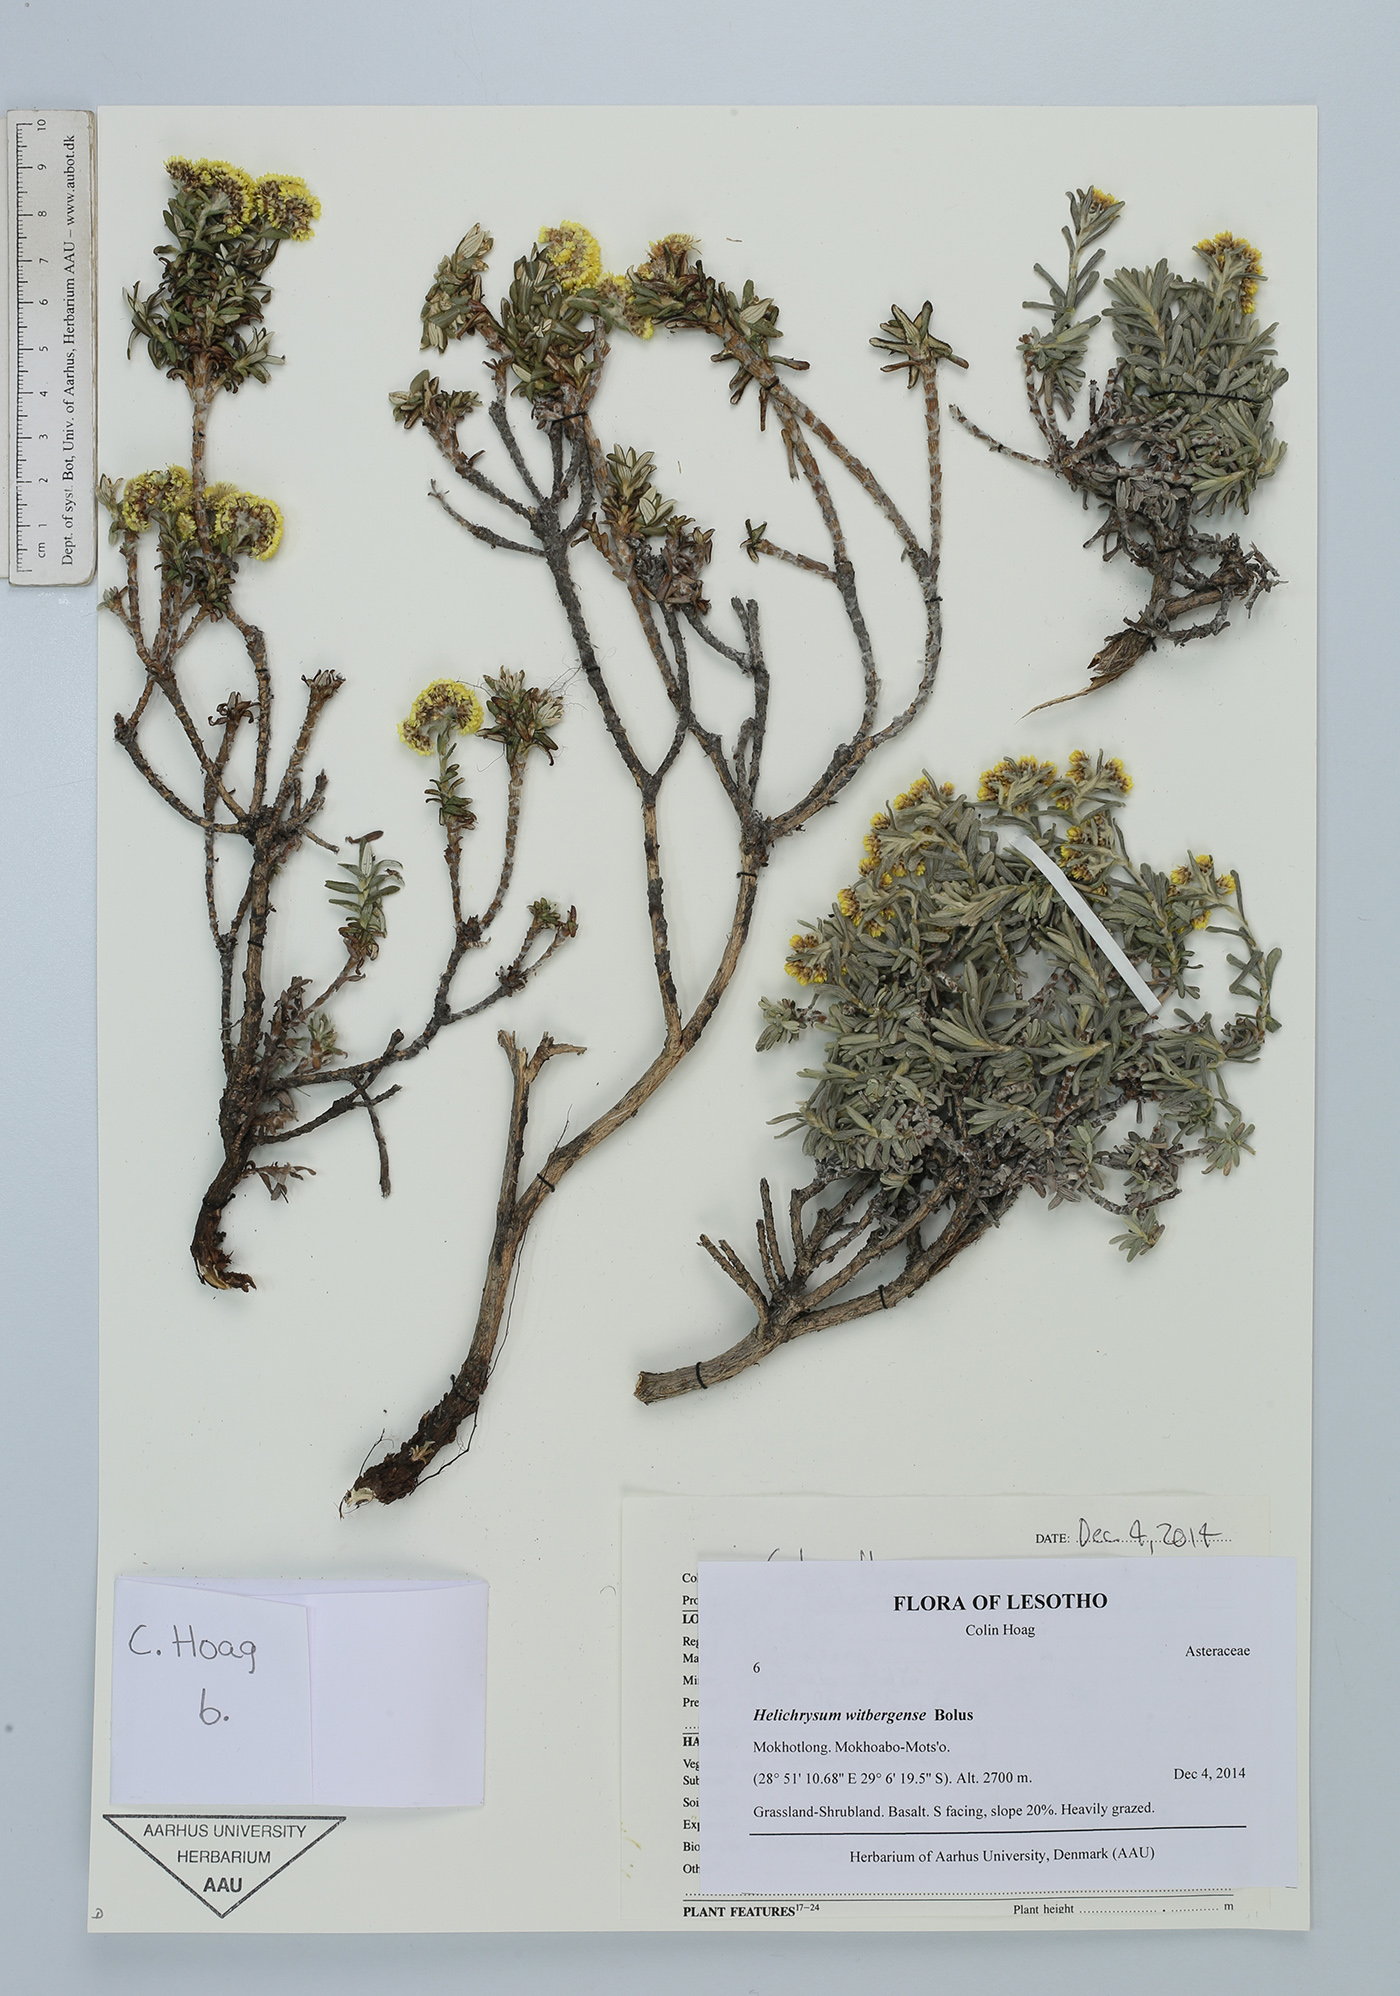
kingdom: Plantae
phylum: Tracheophyta
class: Magnoliopsida
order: Asterales
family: Asteraceae
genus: Helichrysum
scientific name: Helichrysum witbergense
